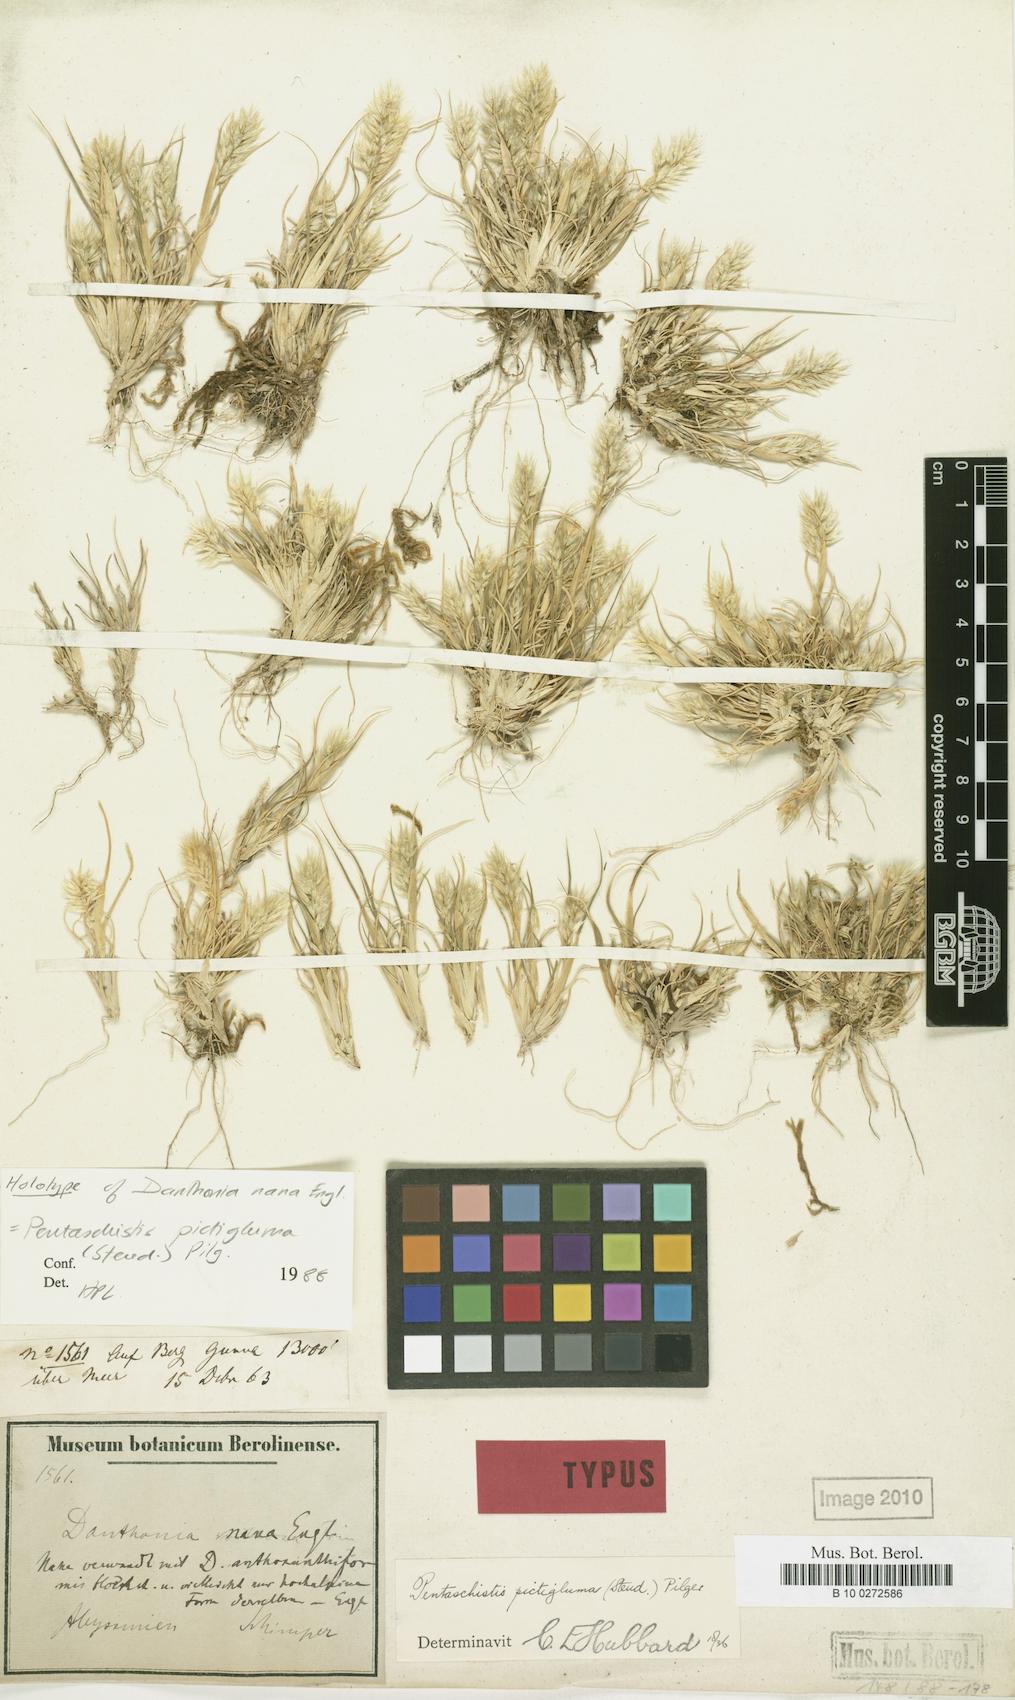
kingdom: Plantae
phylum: Tracheophyta
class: Liliopsida
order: Poales
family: Poaceae
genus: Pentameris
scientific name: Pentameris pictigluma
